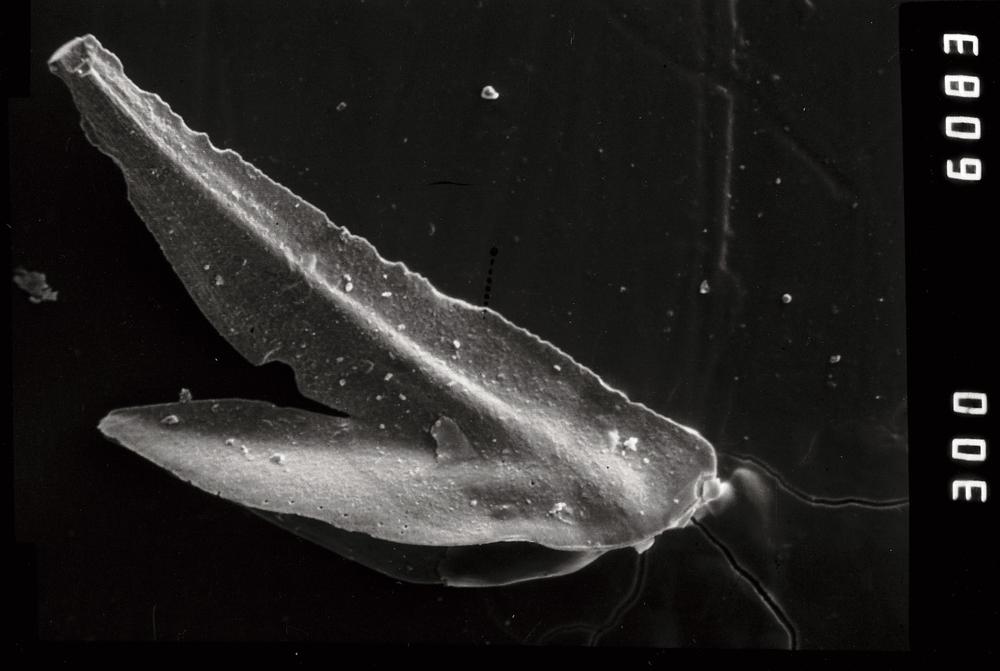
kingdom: Animalia
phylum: Chordata
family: Drepanoistodontidae
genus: Drepanoistodus
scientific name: Drepanoistodus Oistodus forceps
